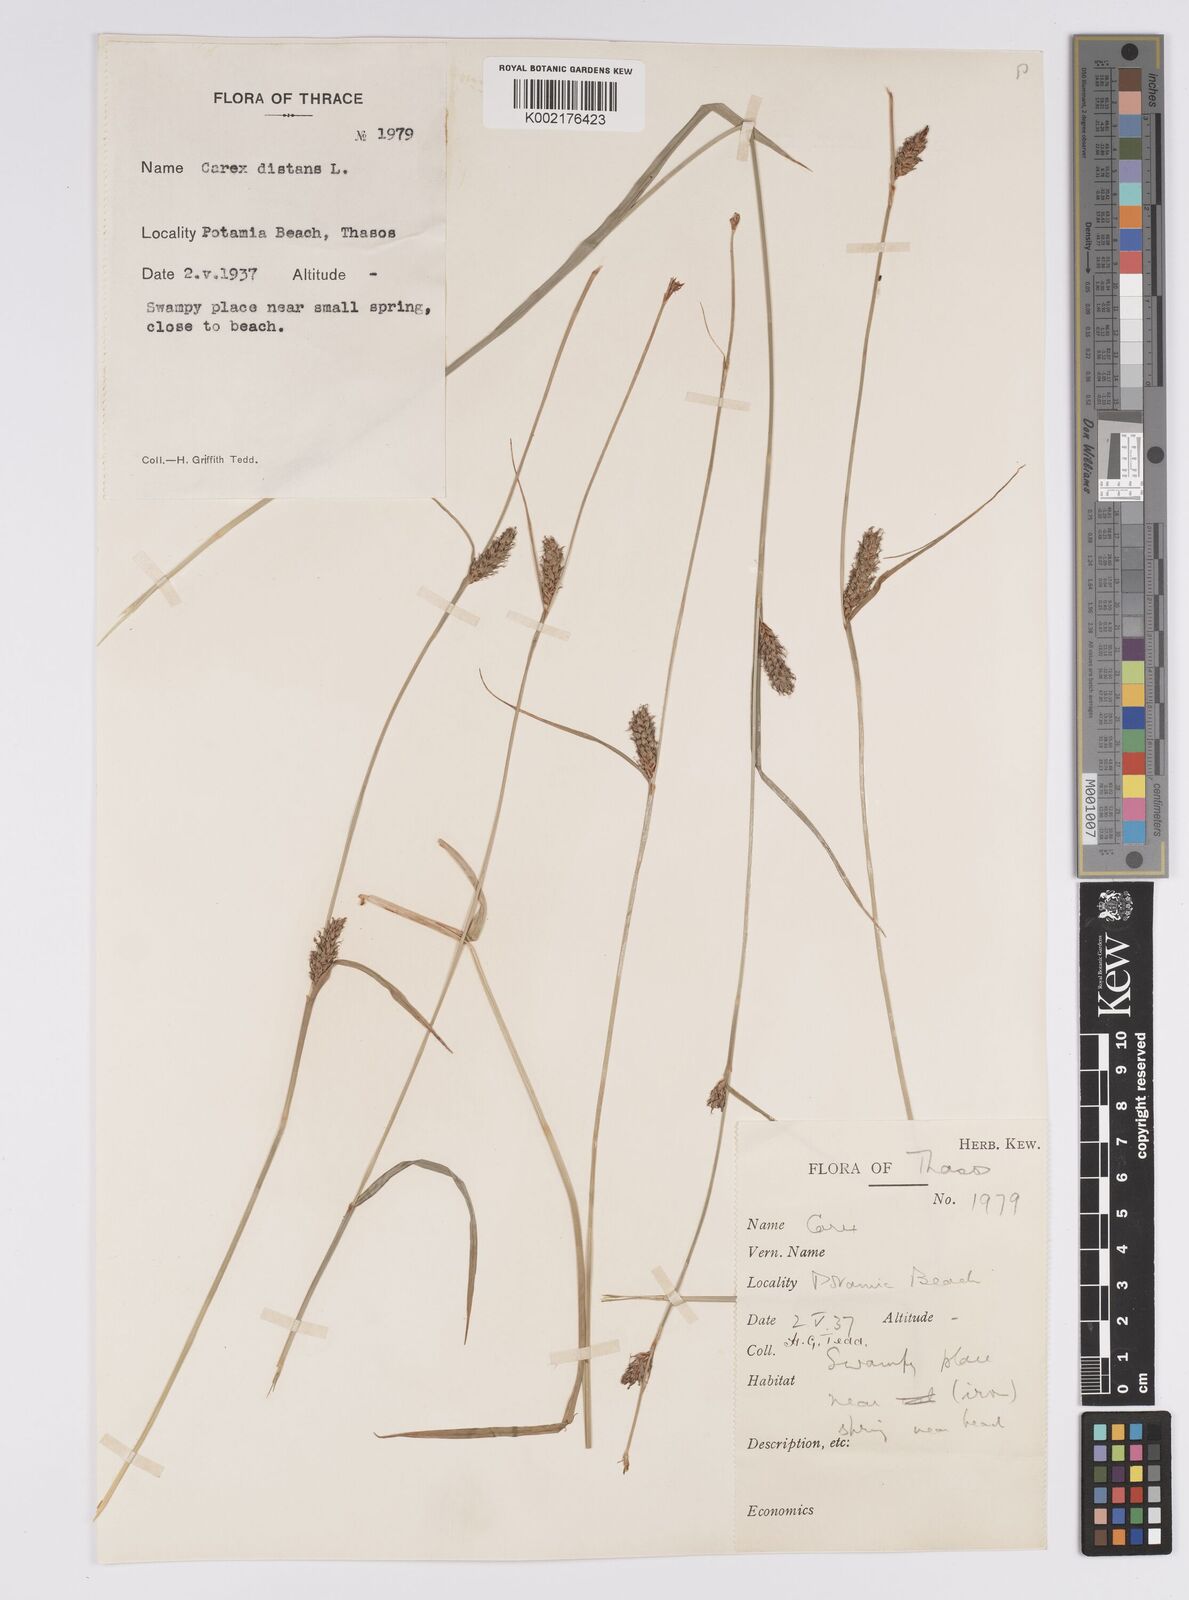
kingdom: Plantae
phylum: Tracheophyta
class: Liliopsida
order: Poales
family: Cyperaceae
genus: Carex
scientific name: Carex distans
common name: Distant sedge
